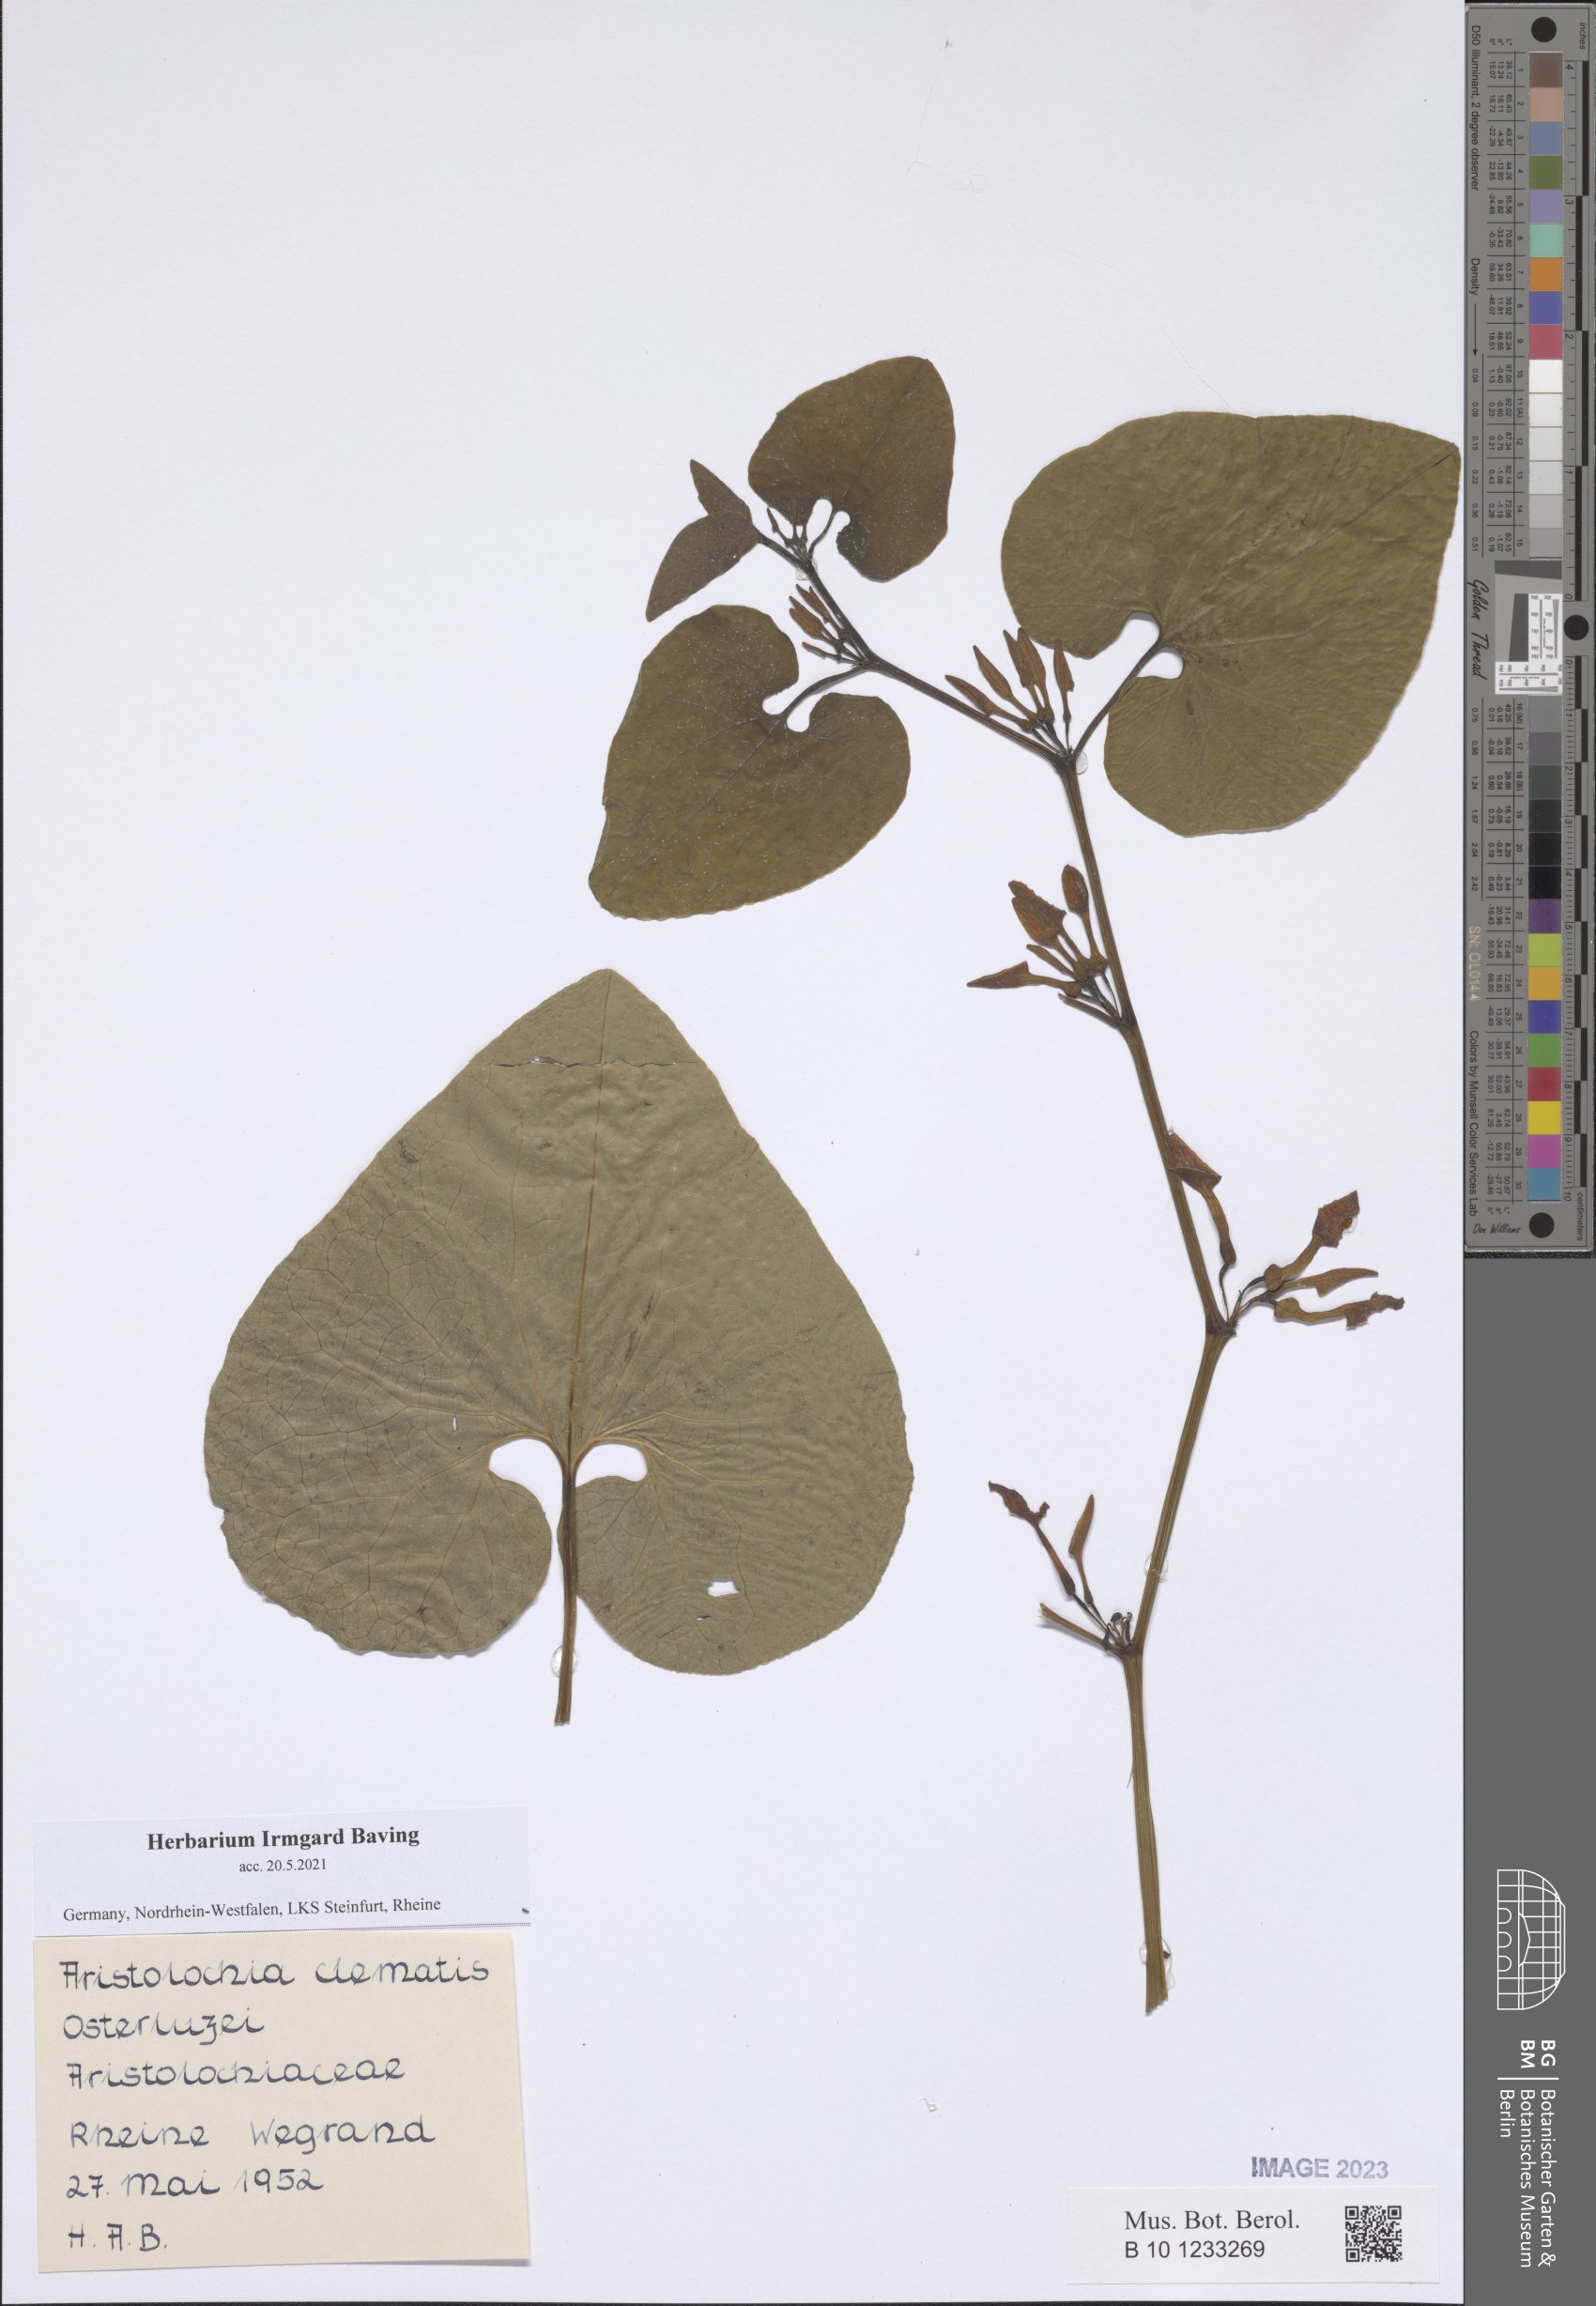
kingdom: Plantae
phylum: Tracheophyta
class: Magnoliopsida
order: Piperales
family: Aristolochiaceae
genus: Aristolochia
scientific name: Aristolochia clematitis
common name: Birthwort
